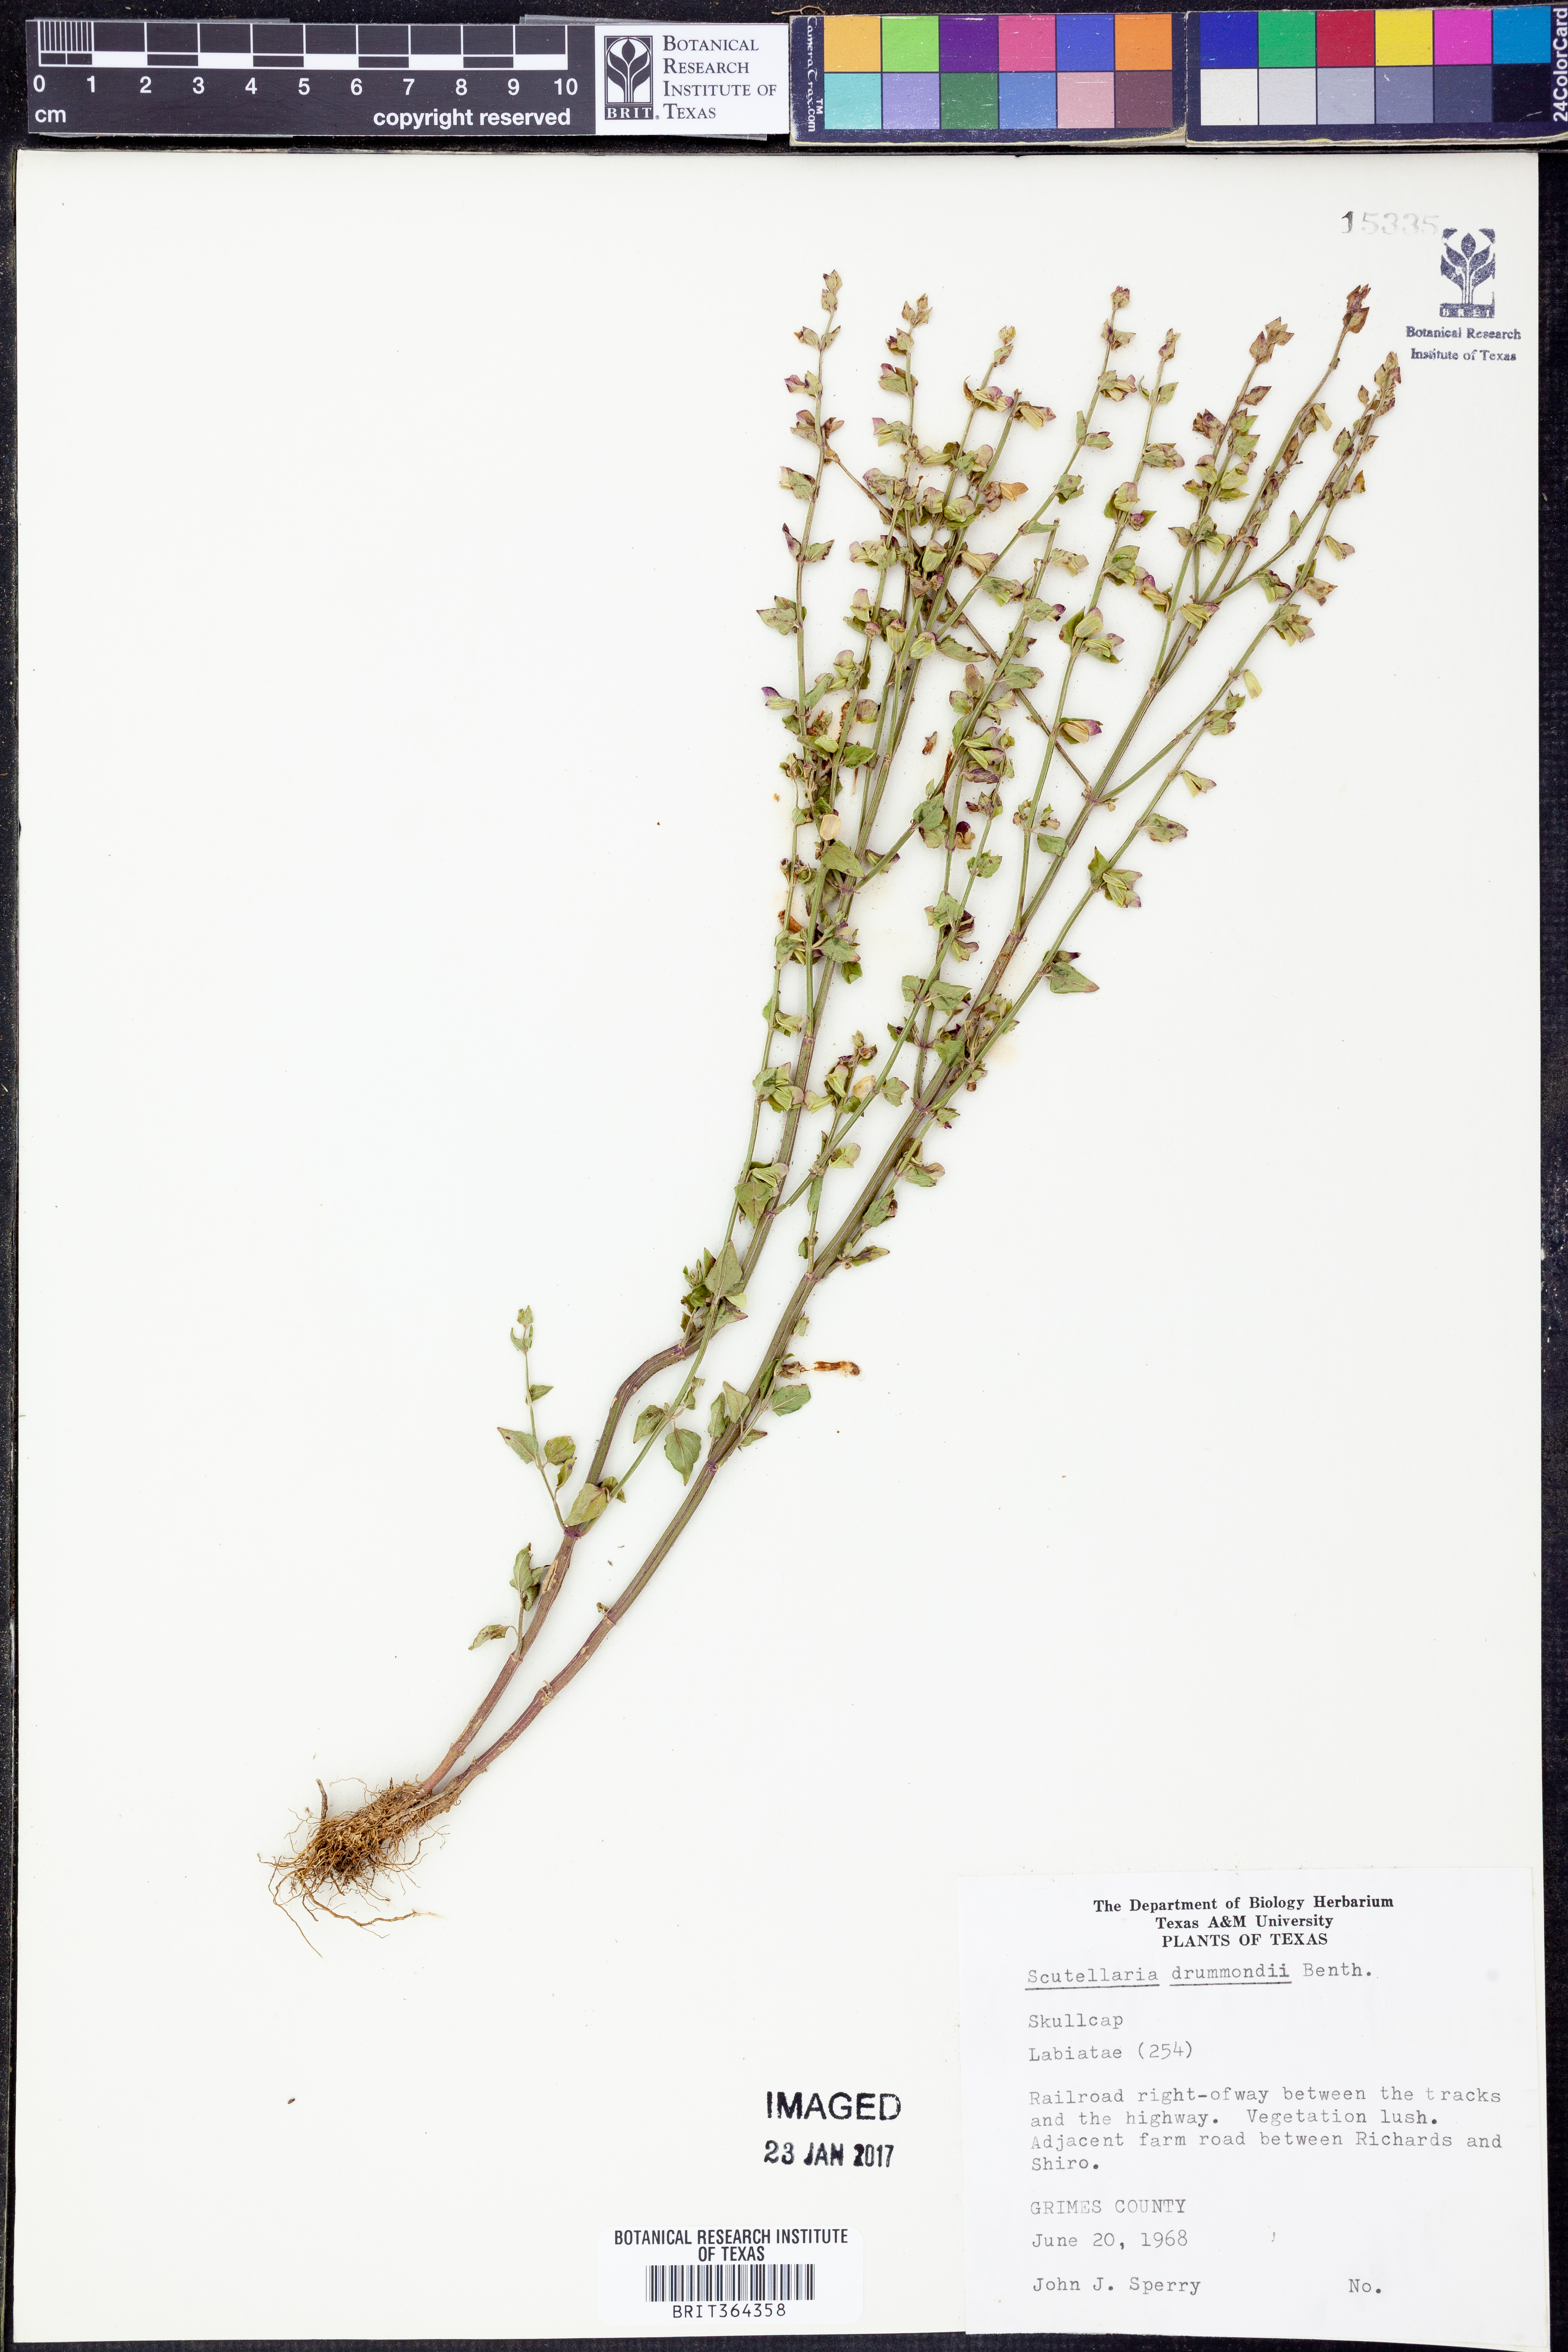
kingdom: Plantae
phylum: Tracheophyta
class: Magnoliopsida
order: Lamiales
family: Lamiaceae
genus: Scutellaria
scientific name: Scutellaria drummondii
